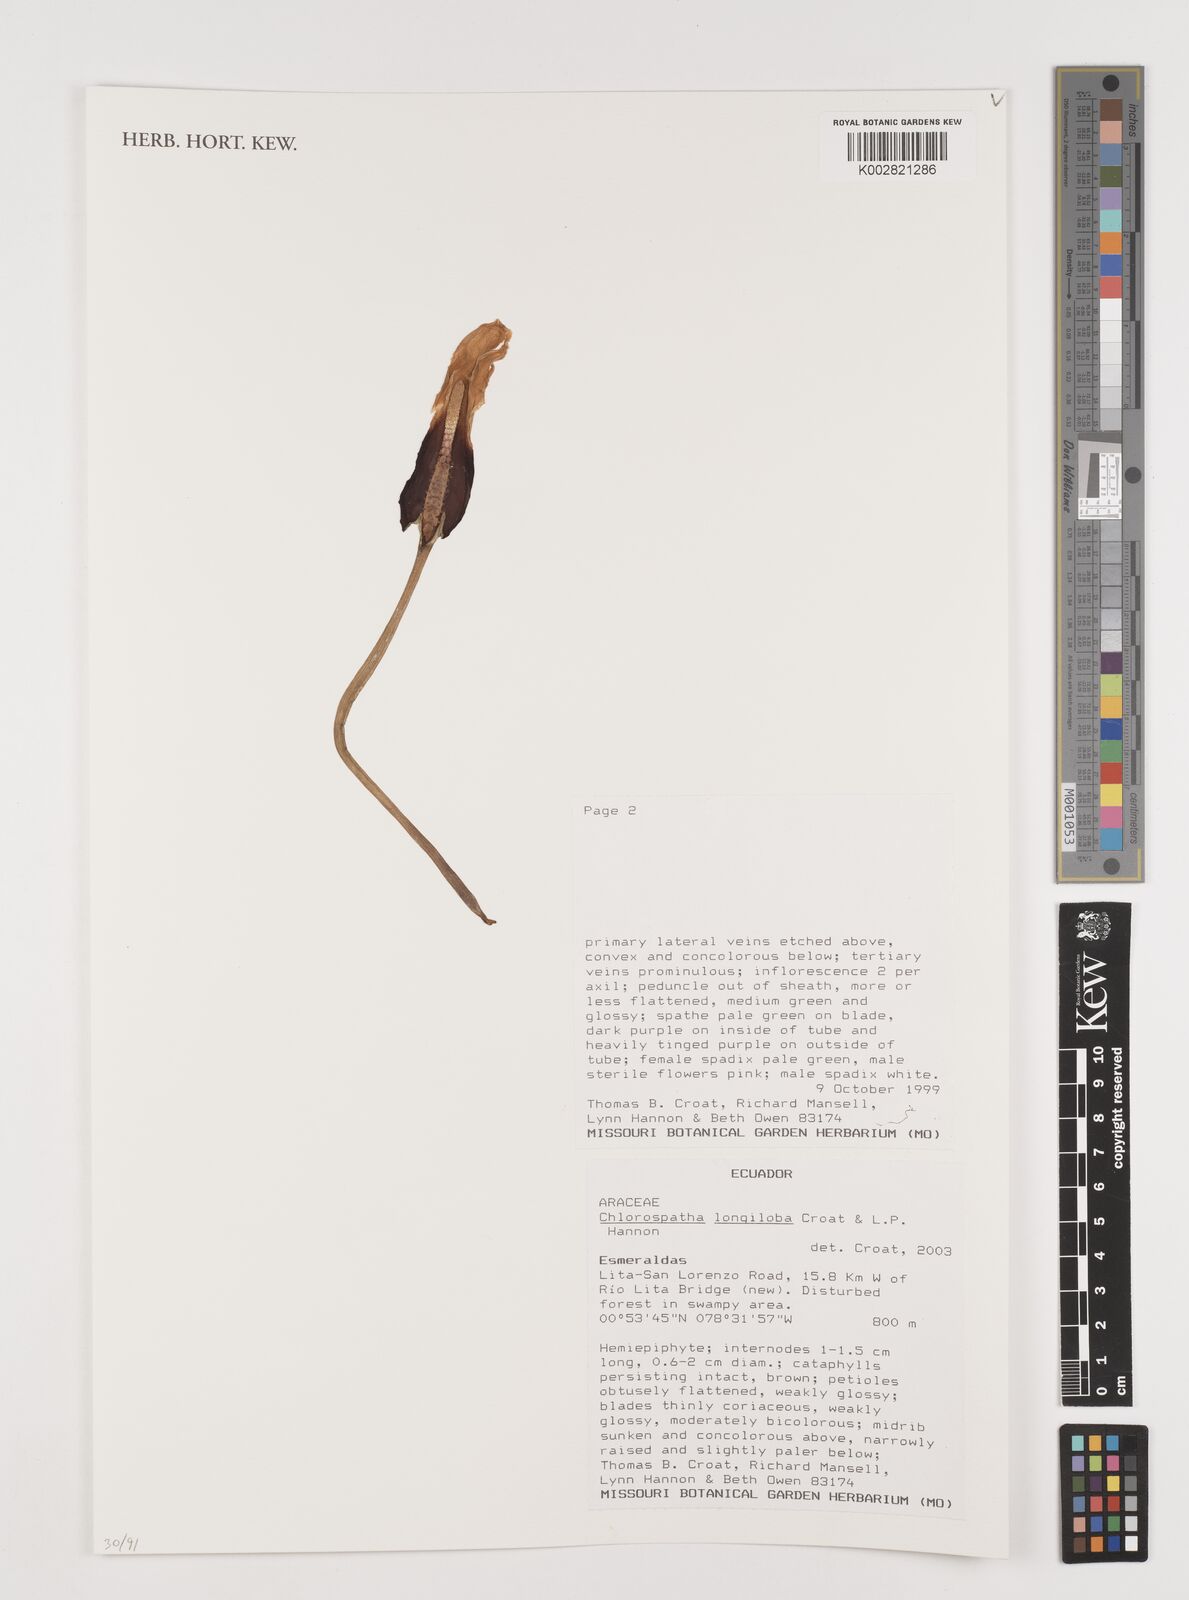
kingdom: Plantae
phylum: Tracheophyta
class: Liliopsida
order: Alismatales
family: Araceae
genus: Chlorospatha
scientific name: Chlorospatha longiloba
